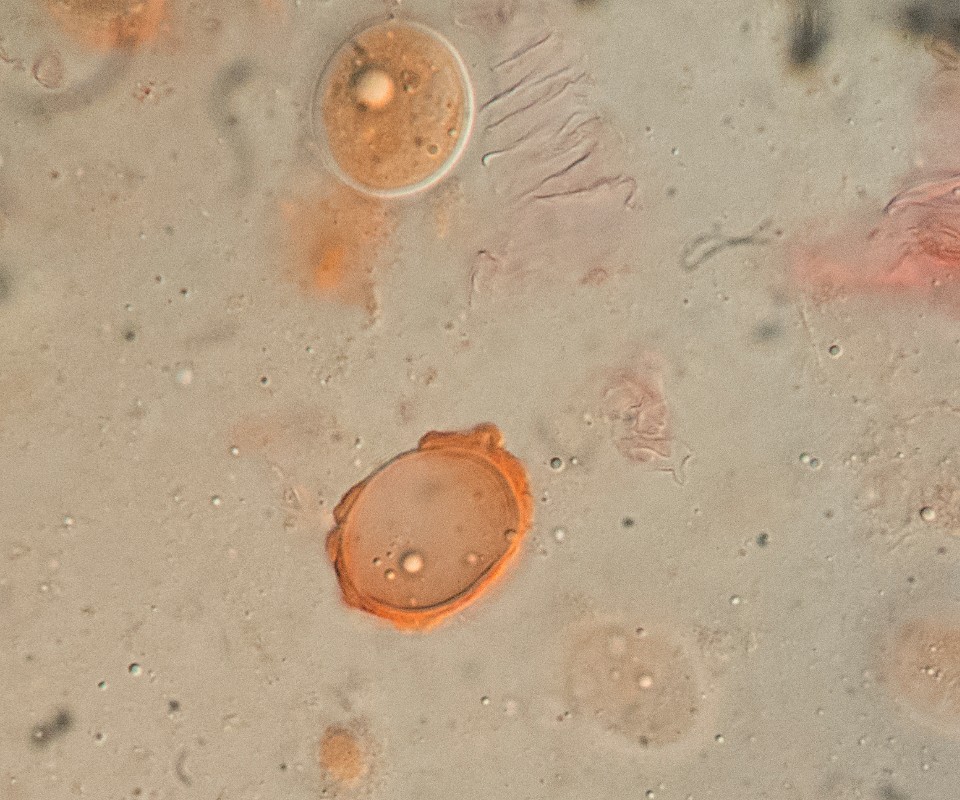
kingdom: Fungi
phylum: Ascomycota
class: Pezizomycetes
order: Pezizales
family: Discinaceae
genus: Hydnotrya
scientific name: Hydnotrya cubispora
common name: kassesporet foldtrøffel
